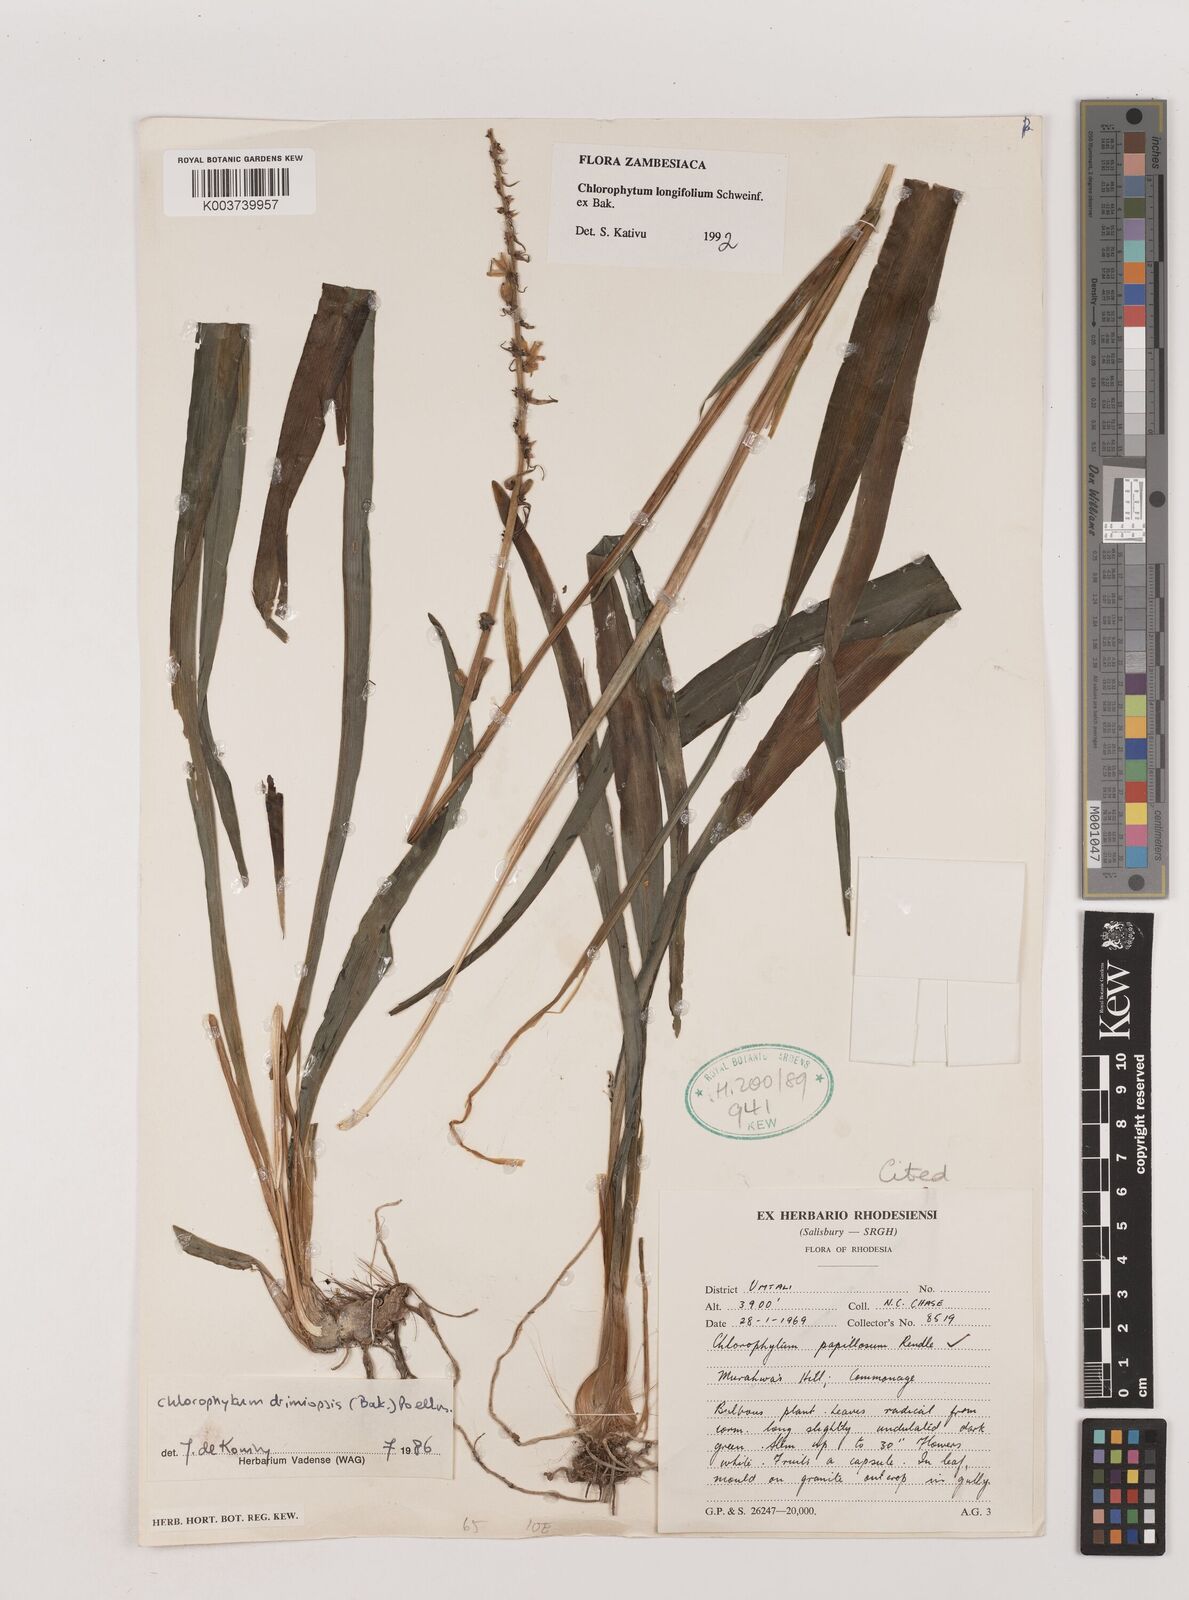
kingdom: Plantae
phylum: Tracheophyta
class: Liliopsida
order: Asparagales
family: Asparagaceae
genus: Chlorophytum
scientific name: Chlorophytum longifolium
